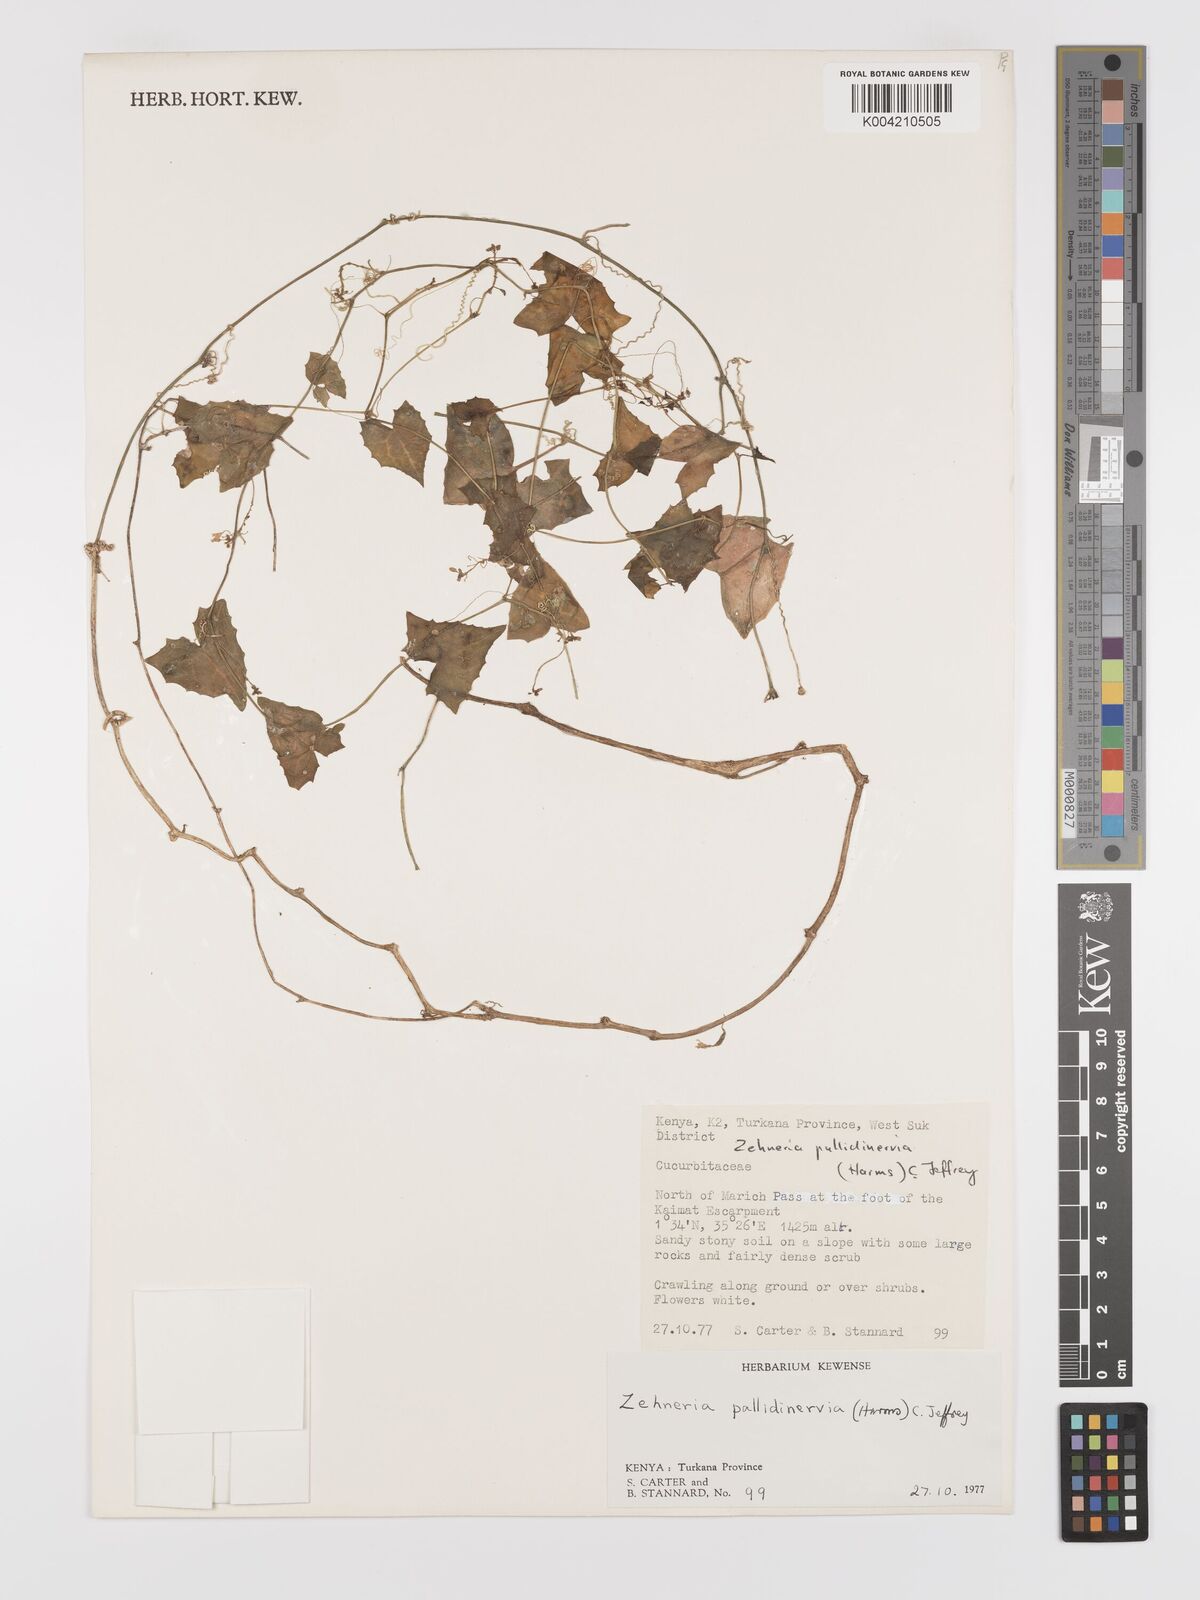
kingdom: Plantae
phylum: Tracheophyta
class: Magnoliopsida
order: Cucurbitales
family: Cucurbitaceae
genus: Zehneria
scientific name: Zehneria pallidinervia
